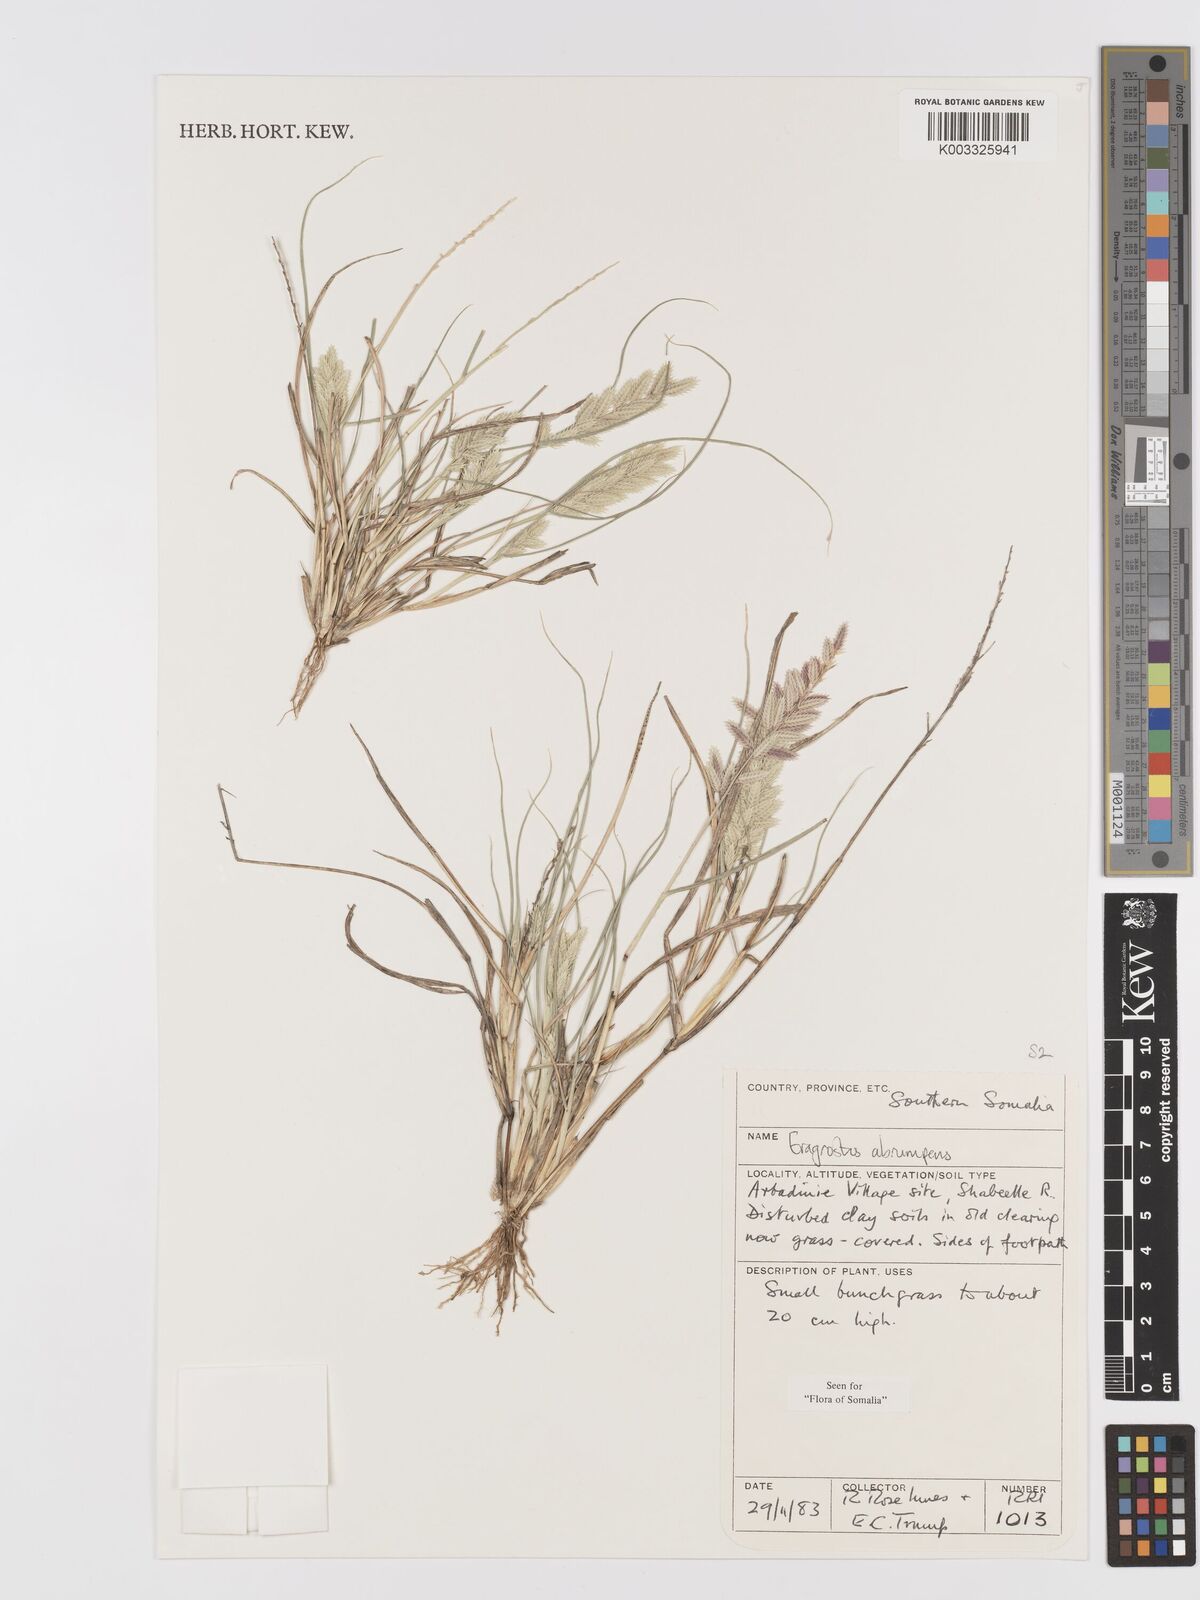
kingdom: Plantae
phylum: Tracheophyta
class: Liliopsida
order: Poales
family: Poaceae
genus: Eragrostis
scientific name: Eragrostis sennii
